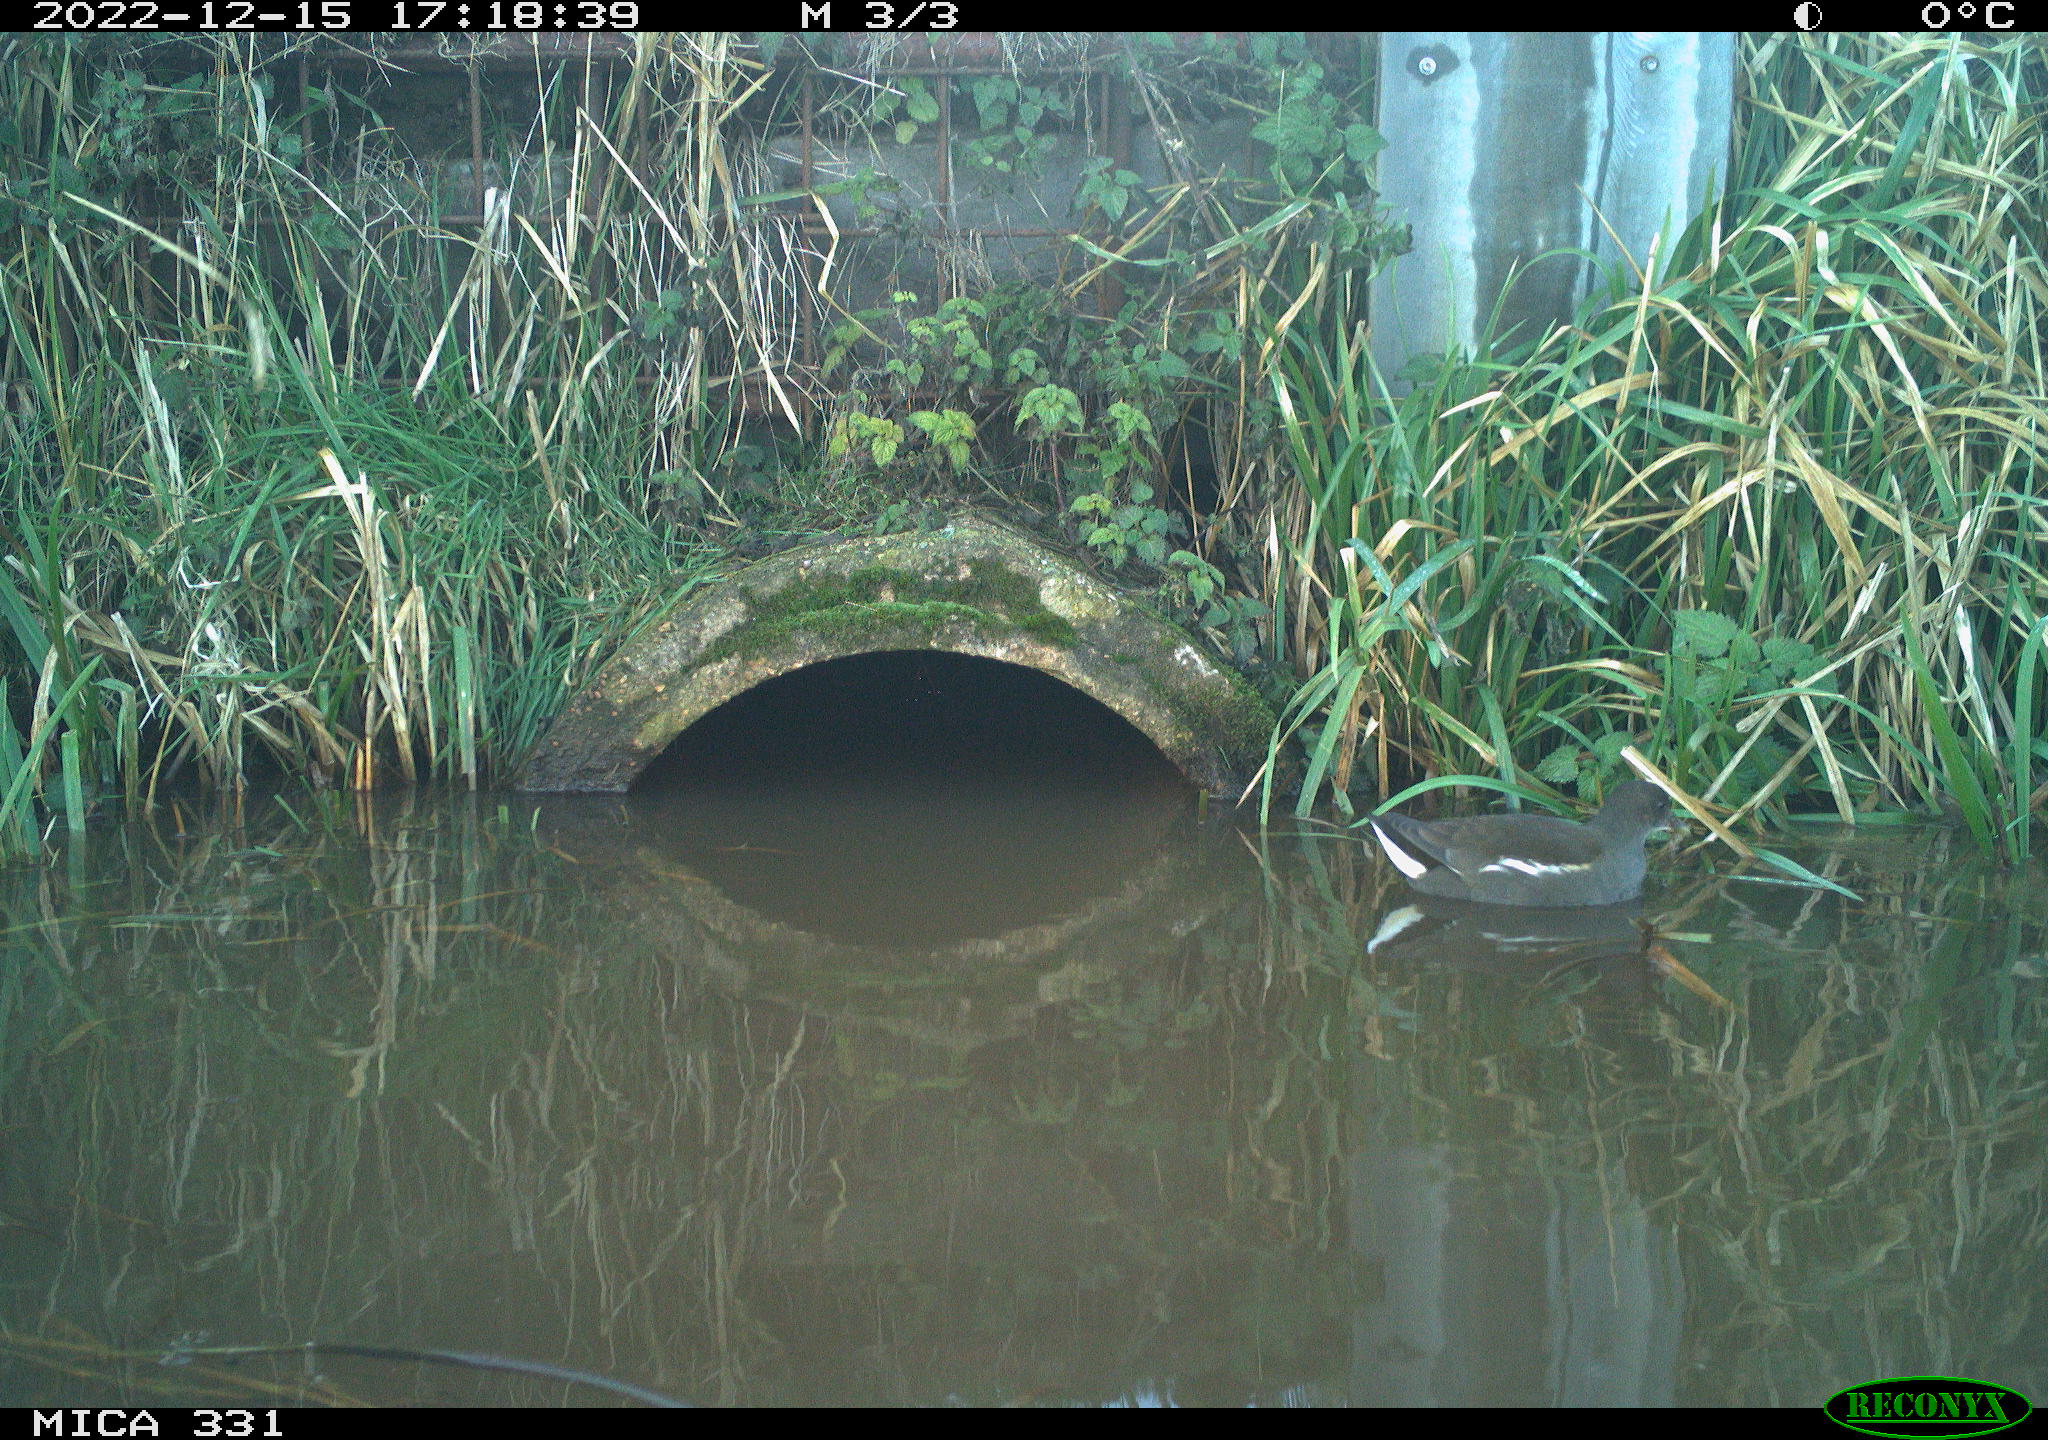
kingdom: Animalia
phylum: Chordata
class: Aves
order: Gruiformes
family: Rallidae
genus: Gallinula
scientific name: Gallinula chloropus
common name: Common moorhen
